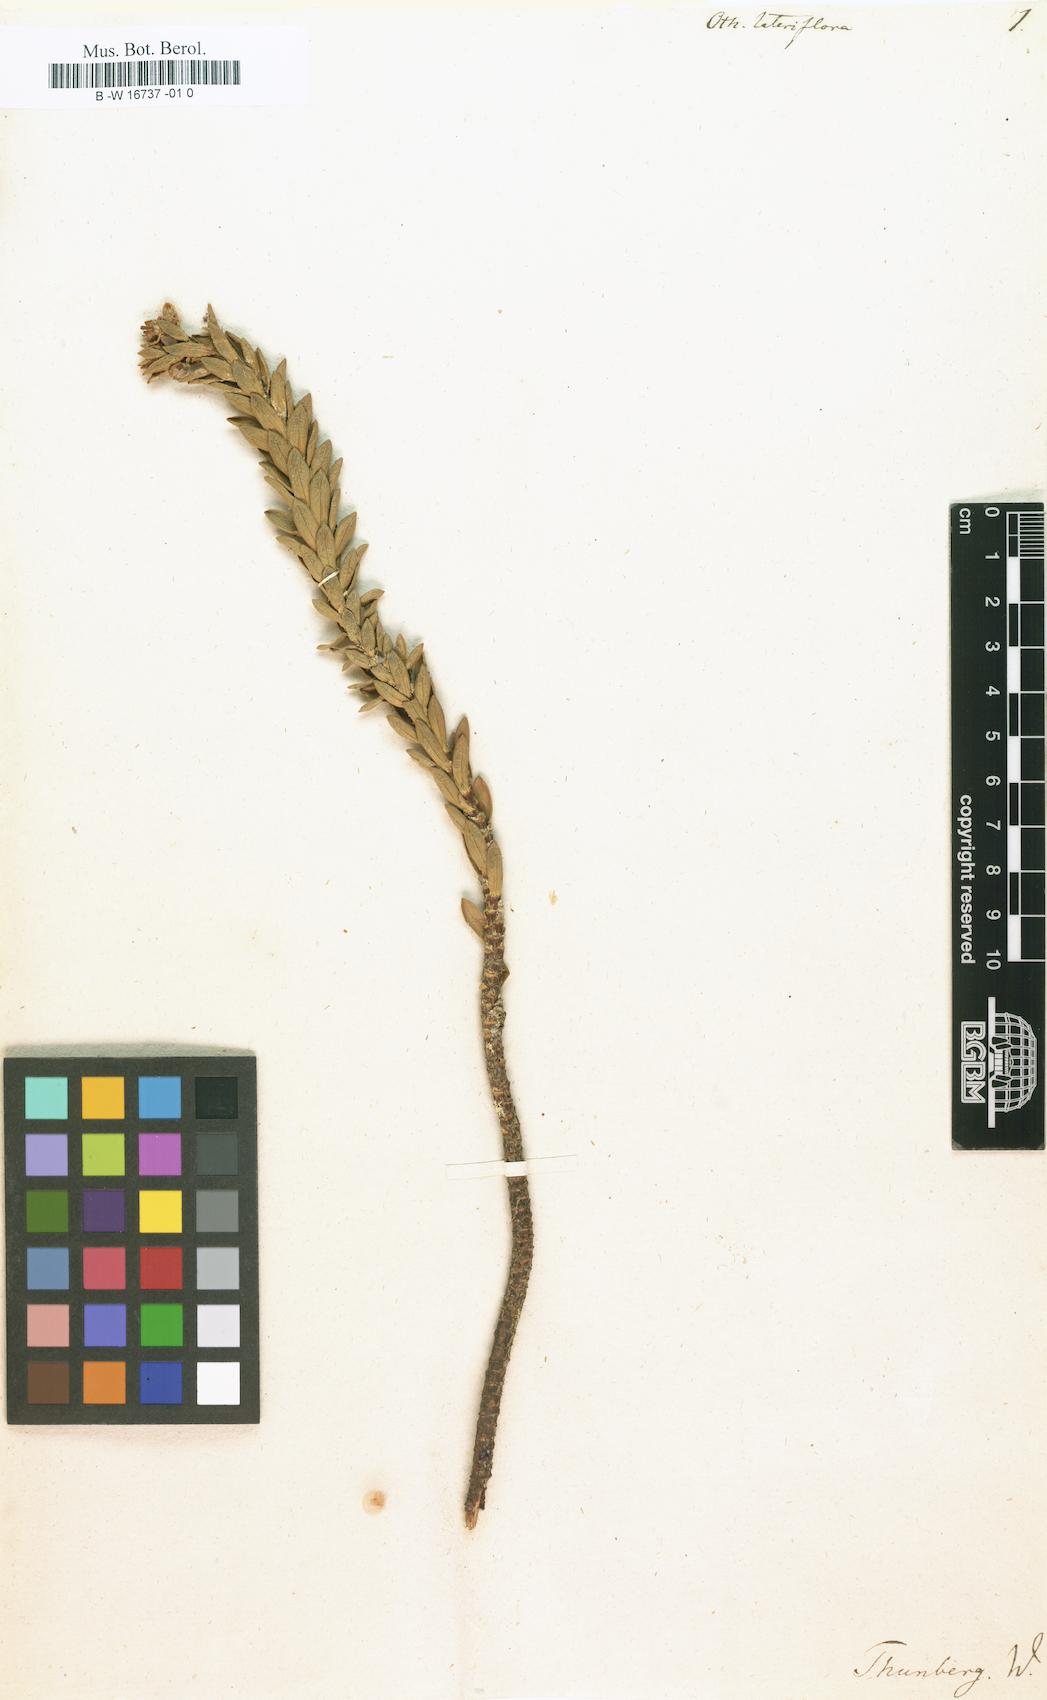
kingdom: Plantae
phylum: Tracheophyta
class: Magnoliopsida
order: Asterales
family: Asteraceae
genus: Euryops
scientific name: Euryops lateriflorus
